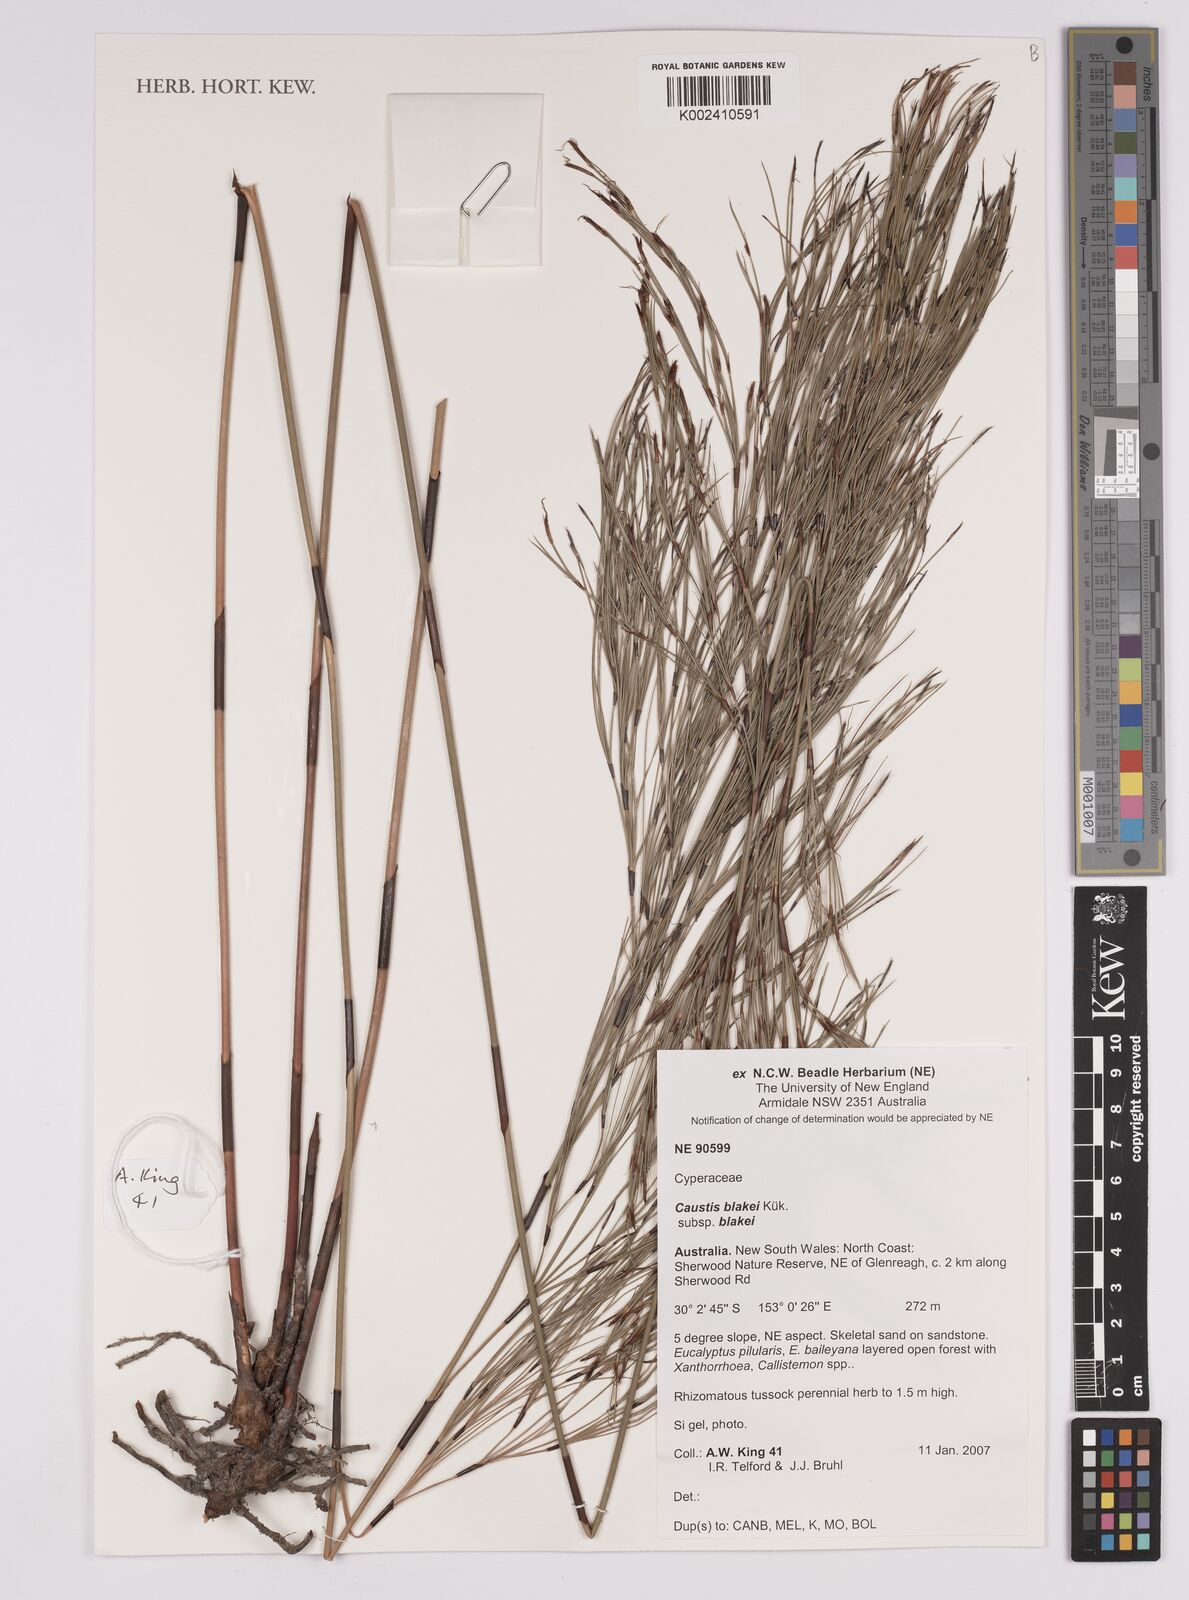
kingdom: Plantae
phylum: Tracheophyta
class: Liliopsida
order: Poales
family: Cyperaceae
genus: Caustis
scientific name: Caustis blakei
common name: Foxtail-fern
